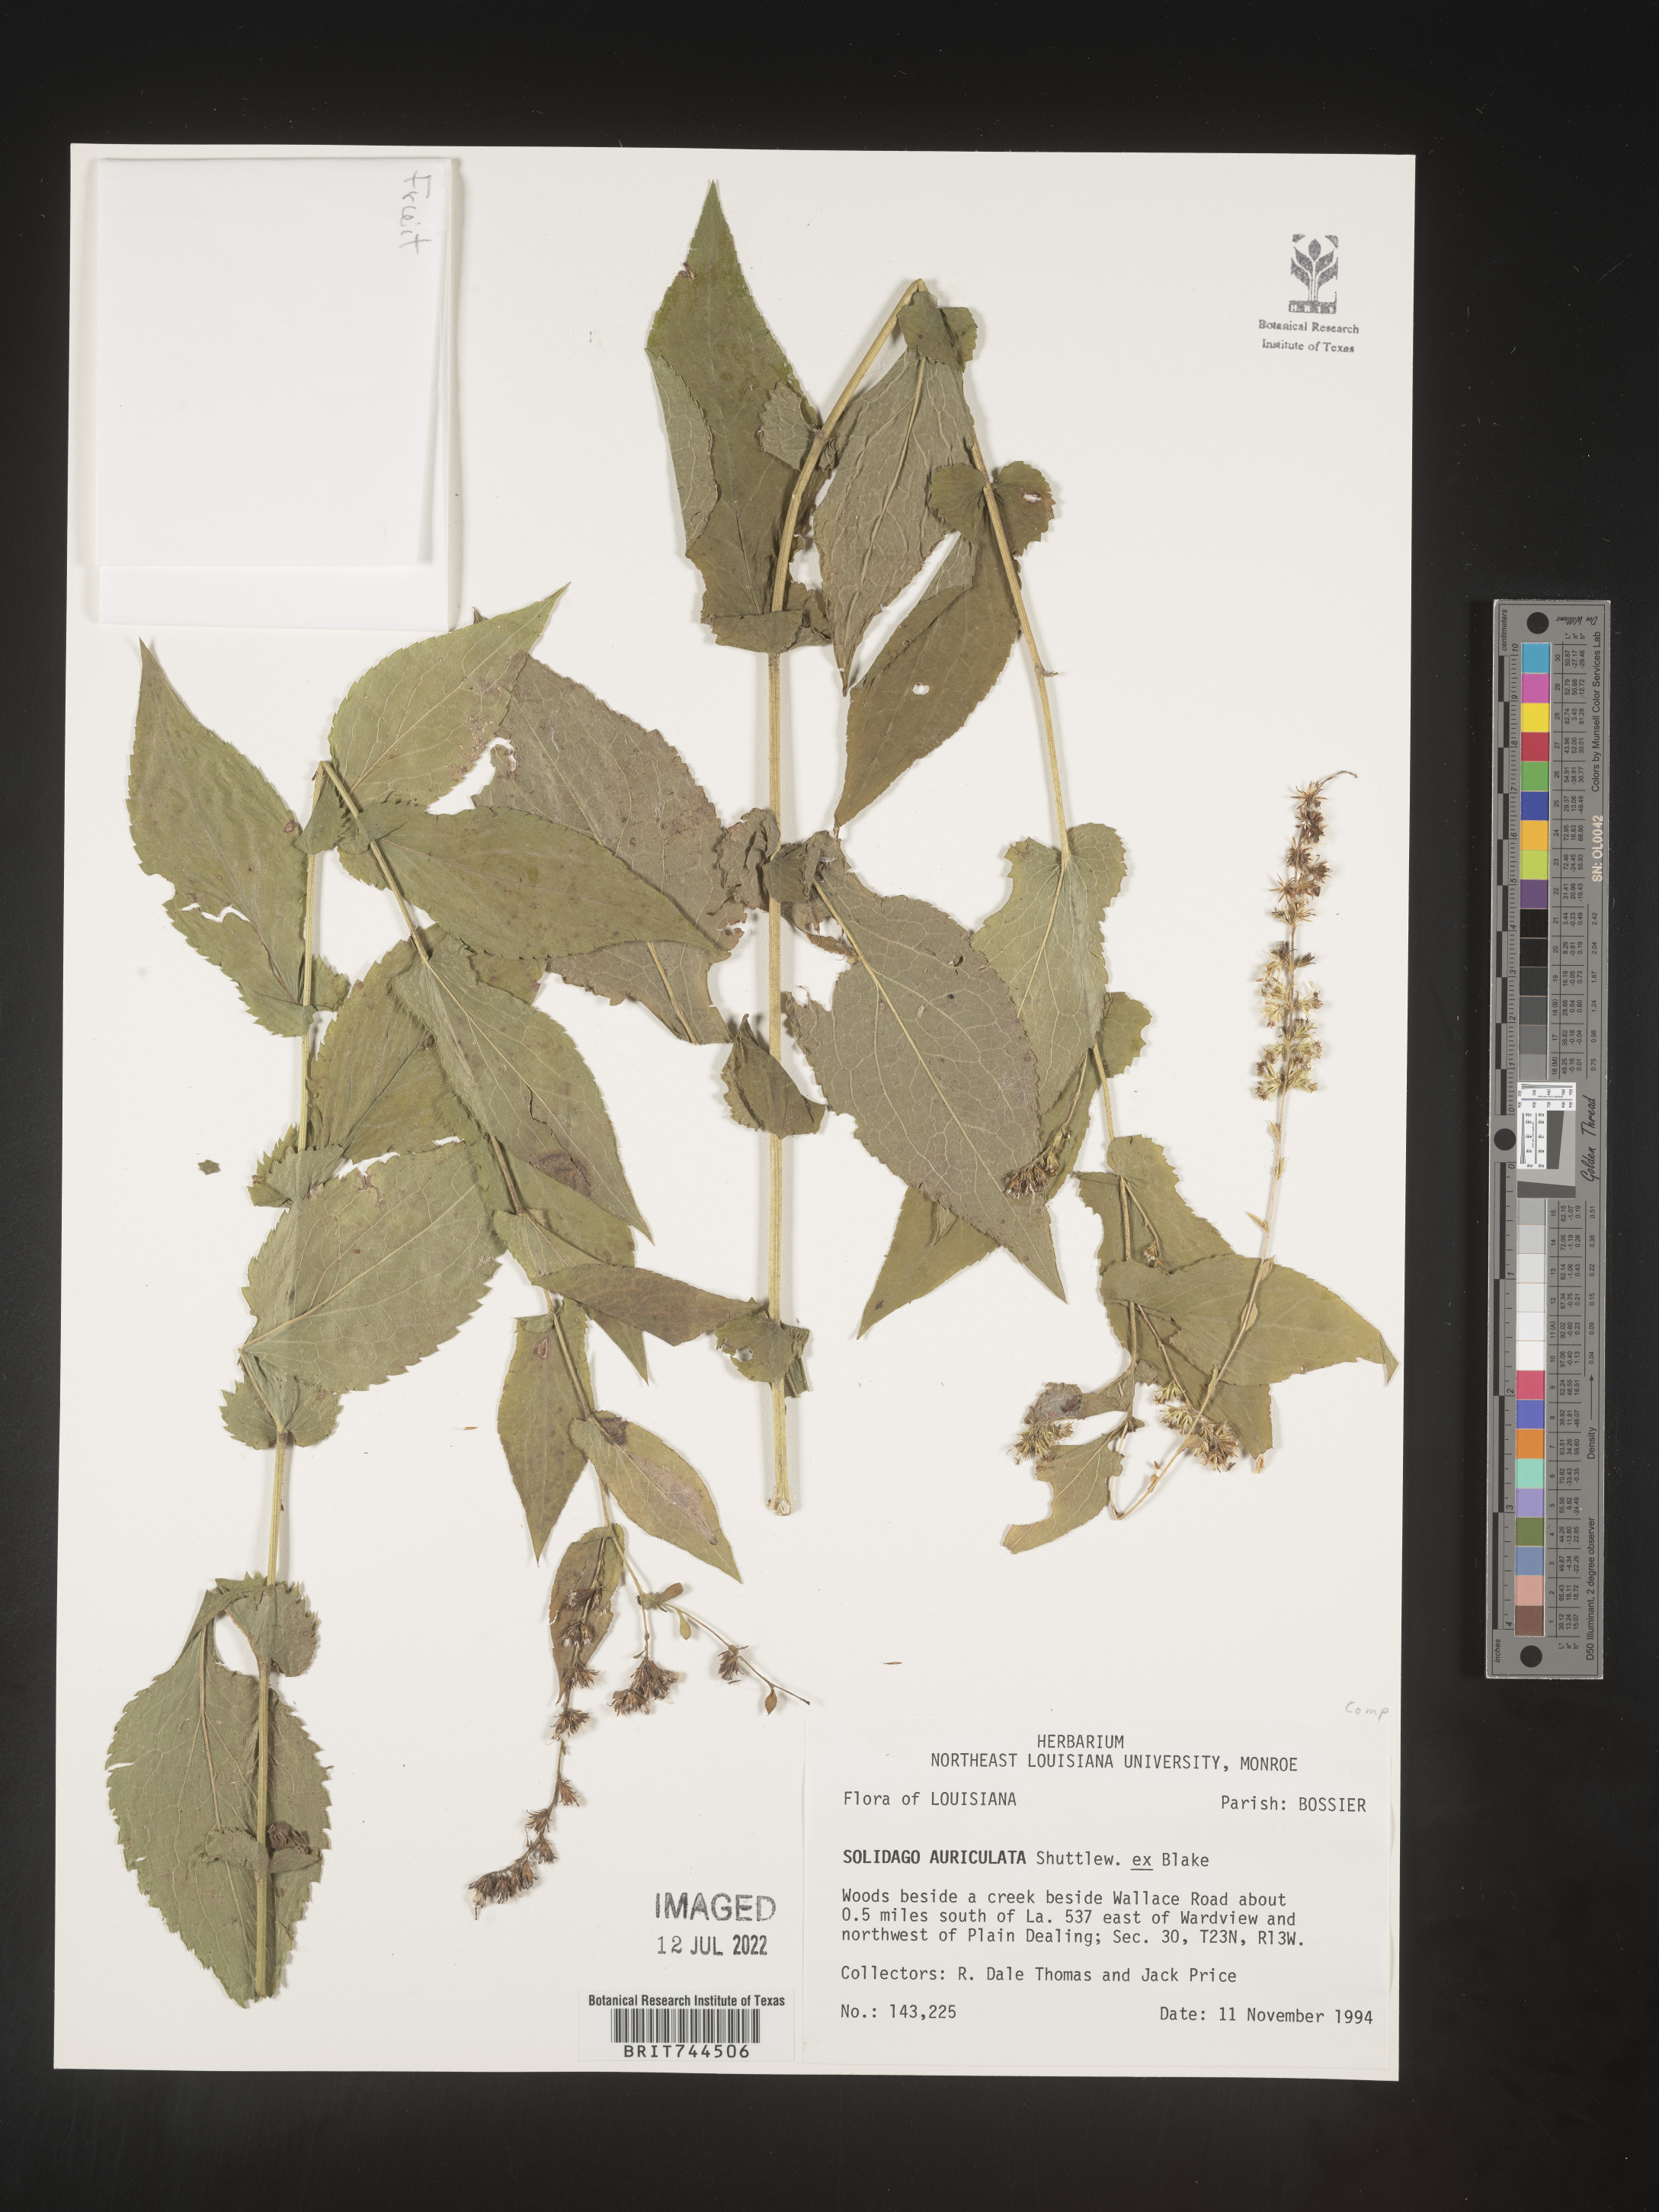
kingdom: Plantae
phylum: Tracheophyta
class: Magnoliopsida
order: Asterales
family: Asteraceae
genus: Solidago
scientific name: Solidago auriculata
